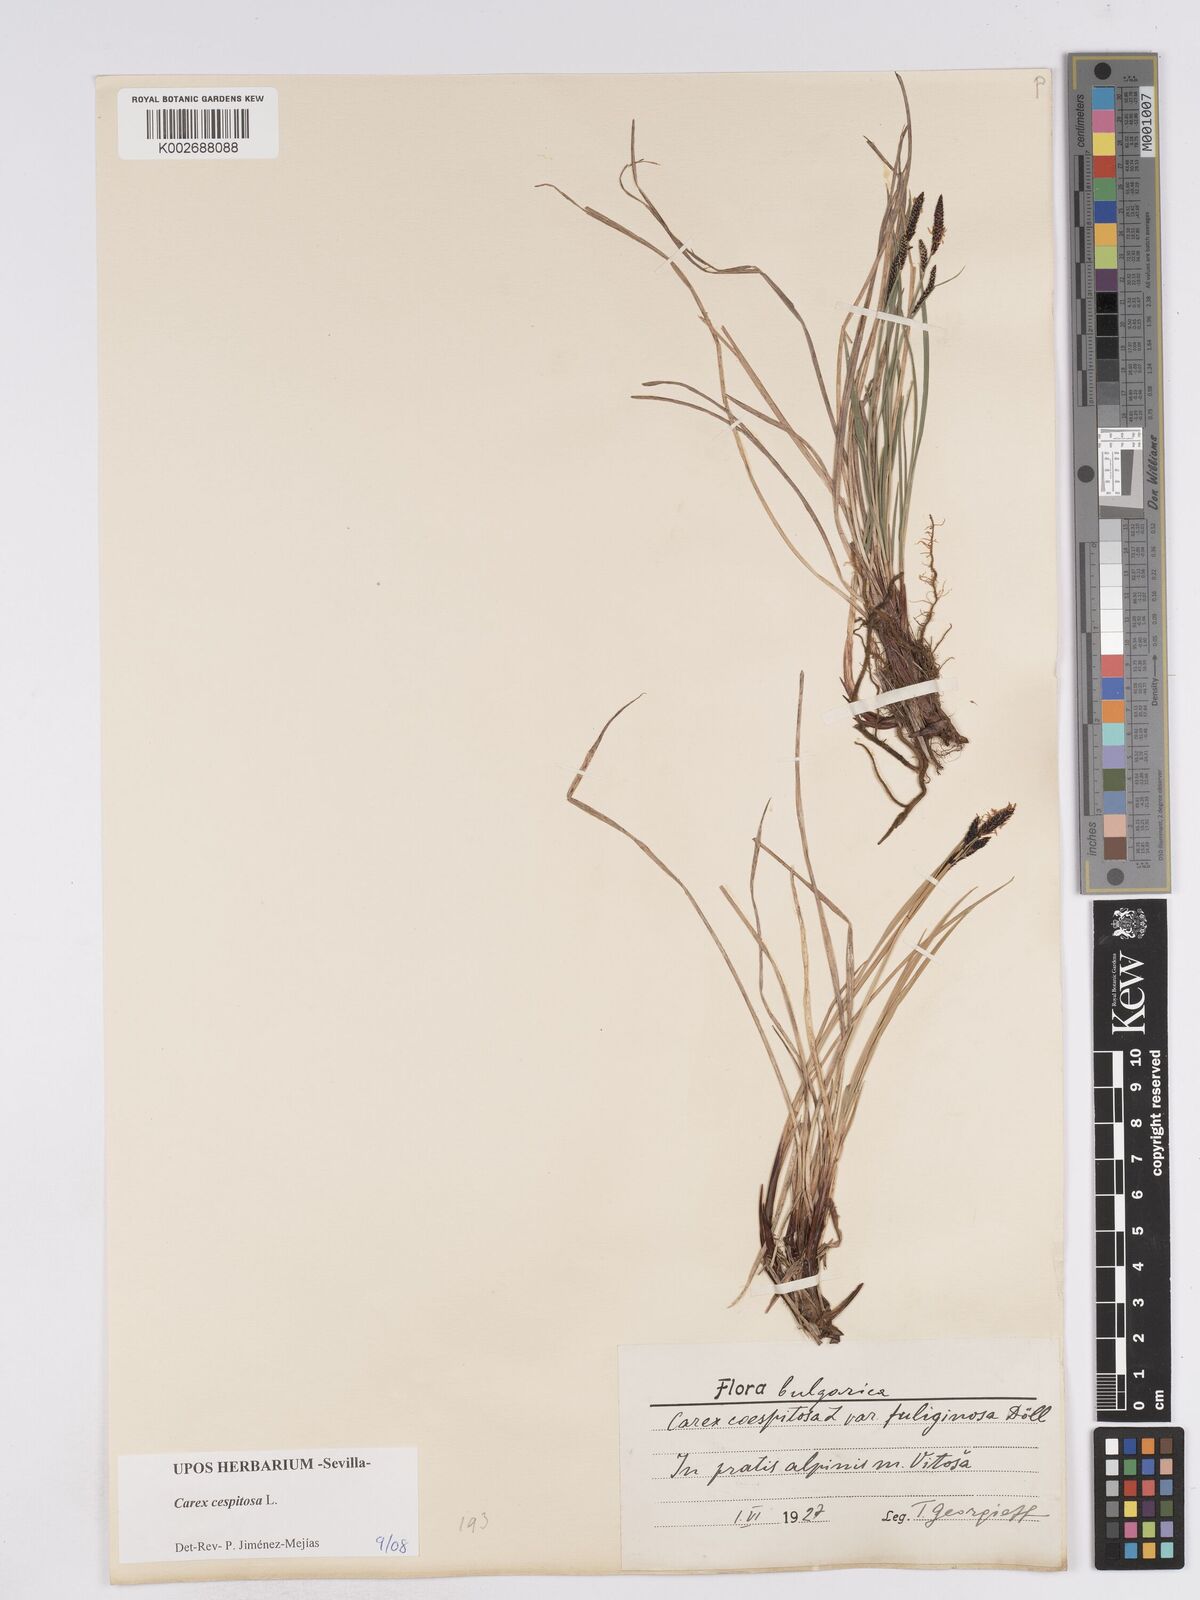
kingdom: Plantae
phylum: Tracheophyta
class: Liliopsida
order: Poales
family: Cyperaceae
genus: Carex
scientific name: Carex
